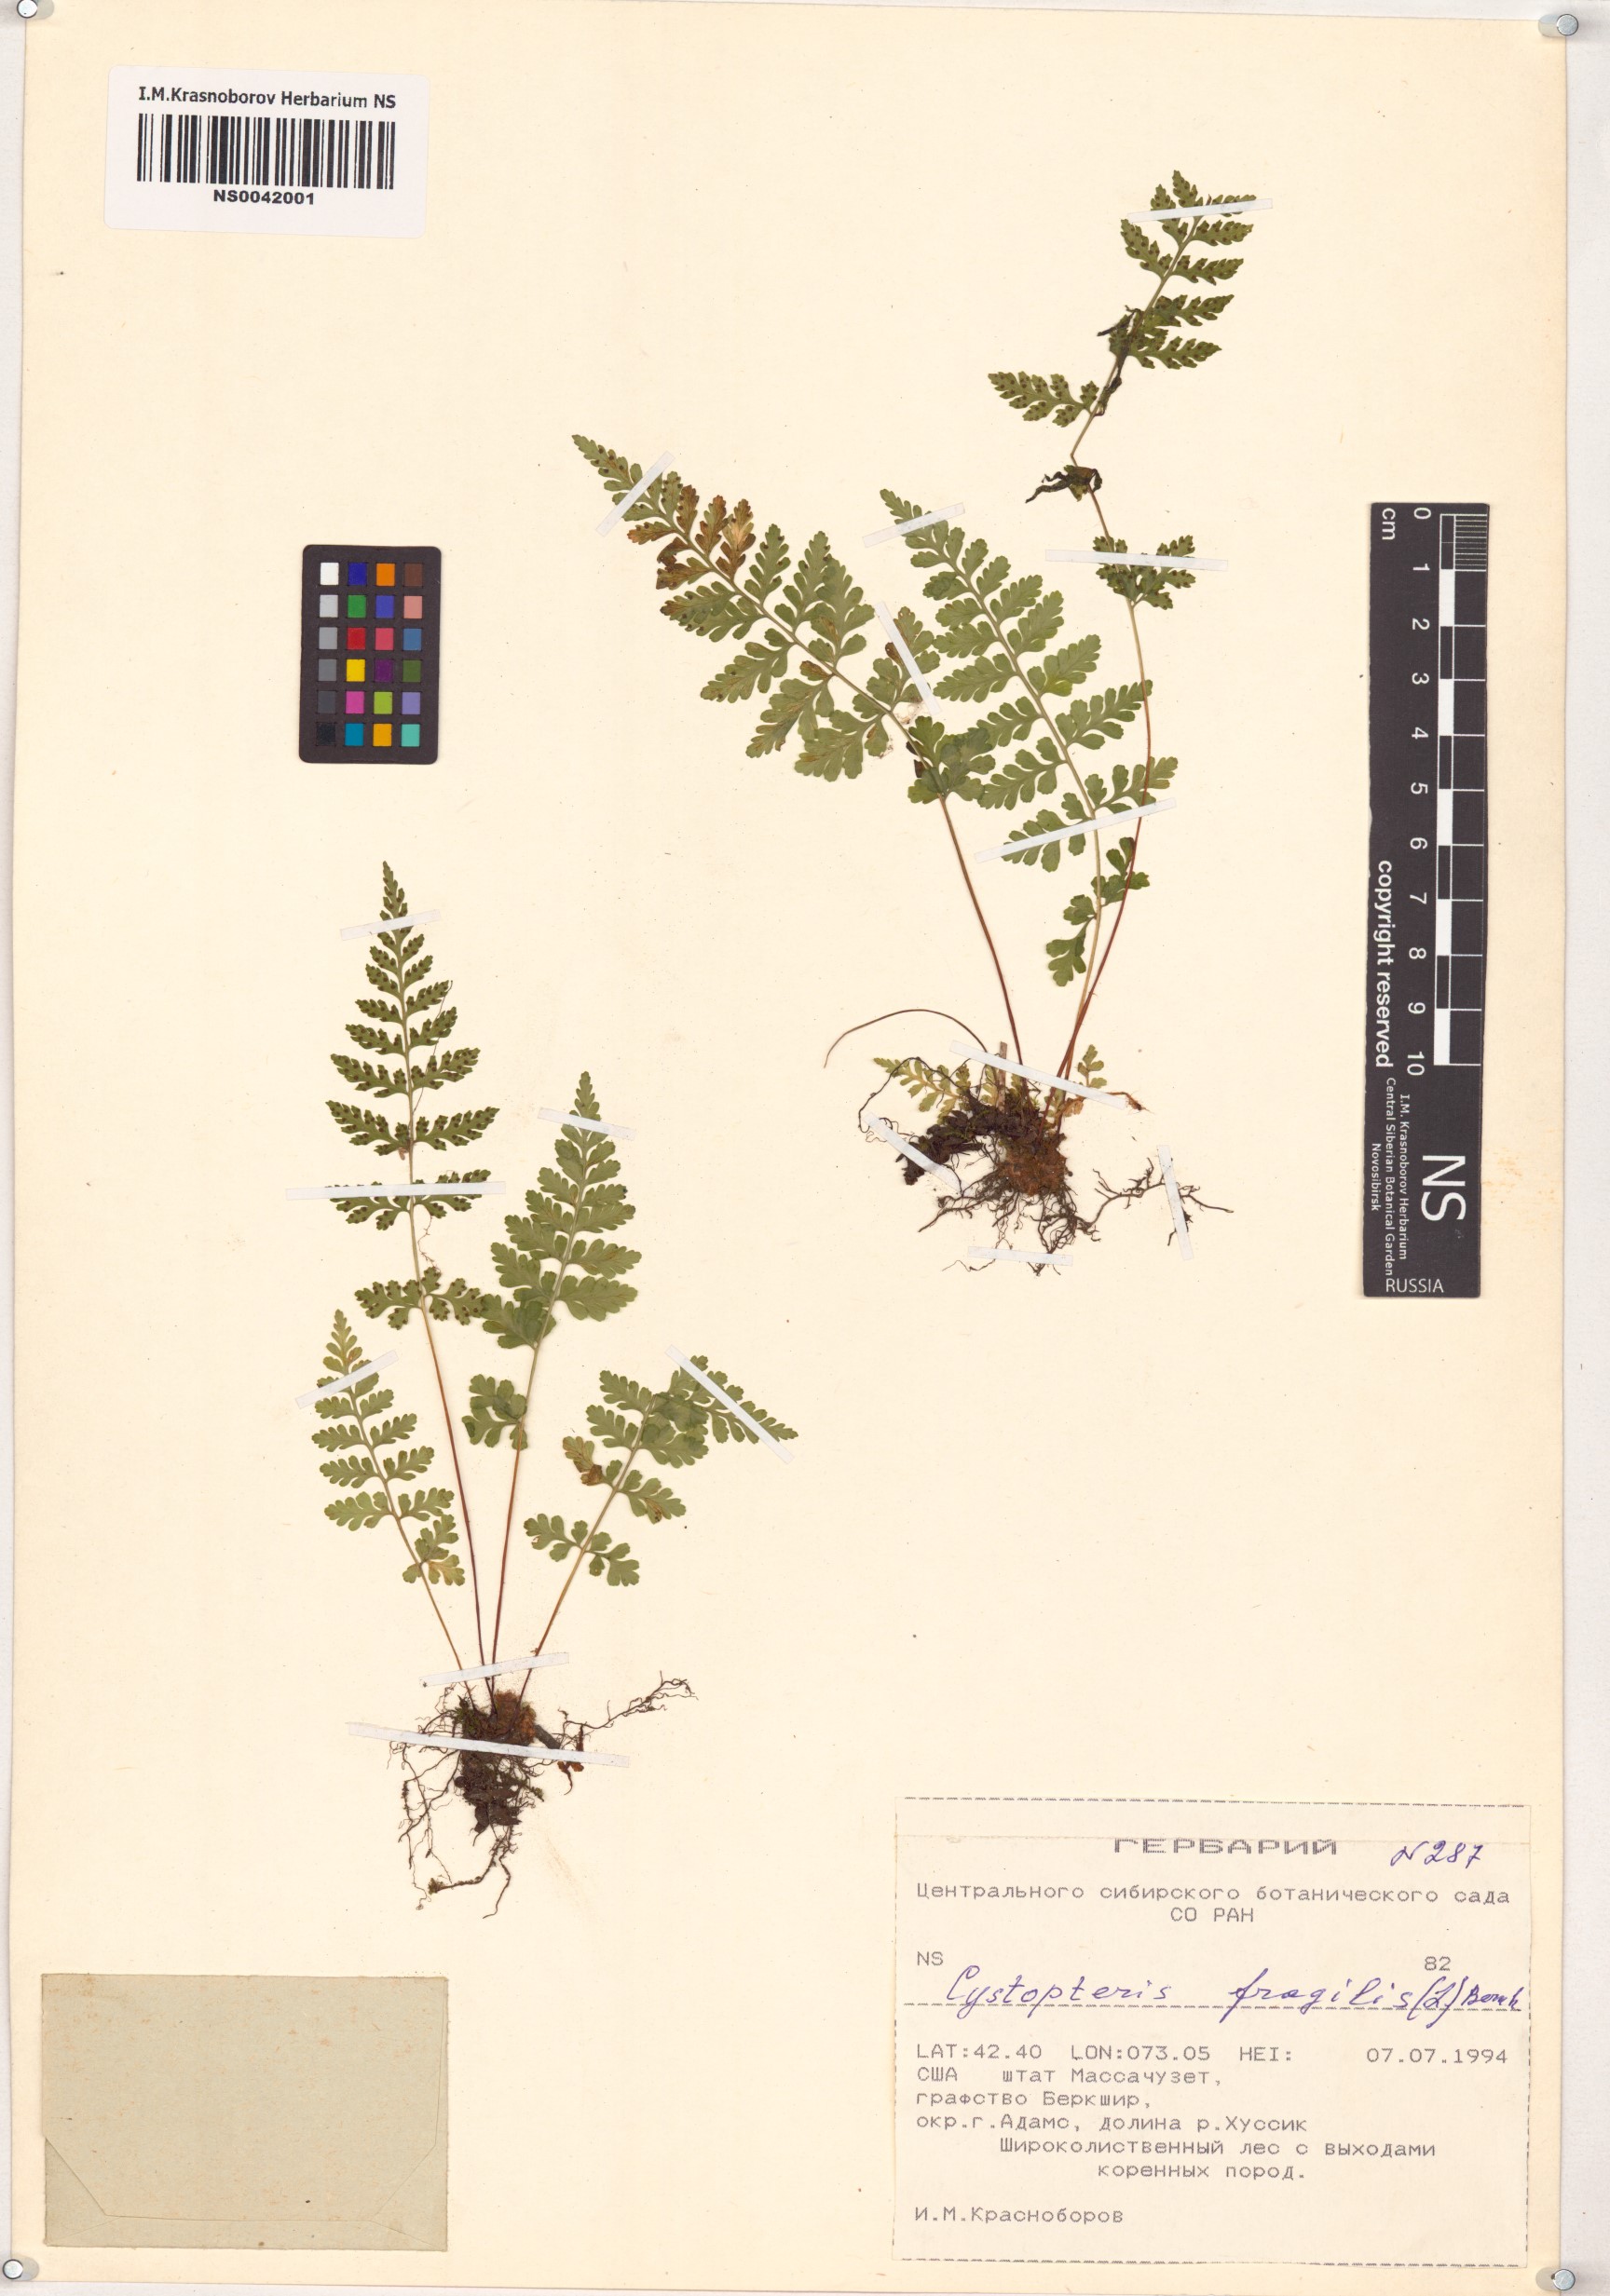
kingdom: Plantae
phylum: Tracheophyta
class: Polypodiopsida
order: Polypodiales
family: Cystopteridaceae
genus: Cystopteris
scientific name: Cystopteris fragilis
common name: Brittle bladder fern
